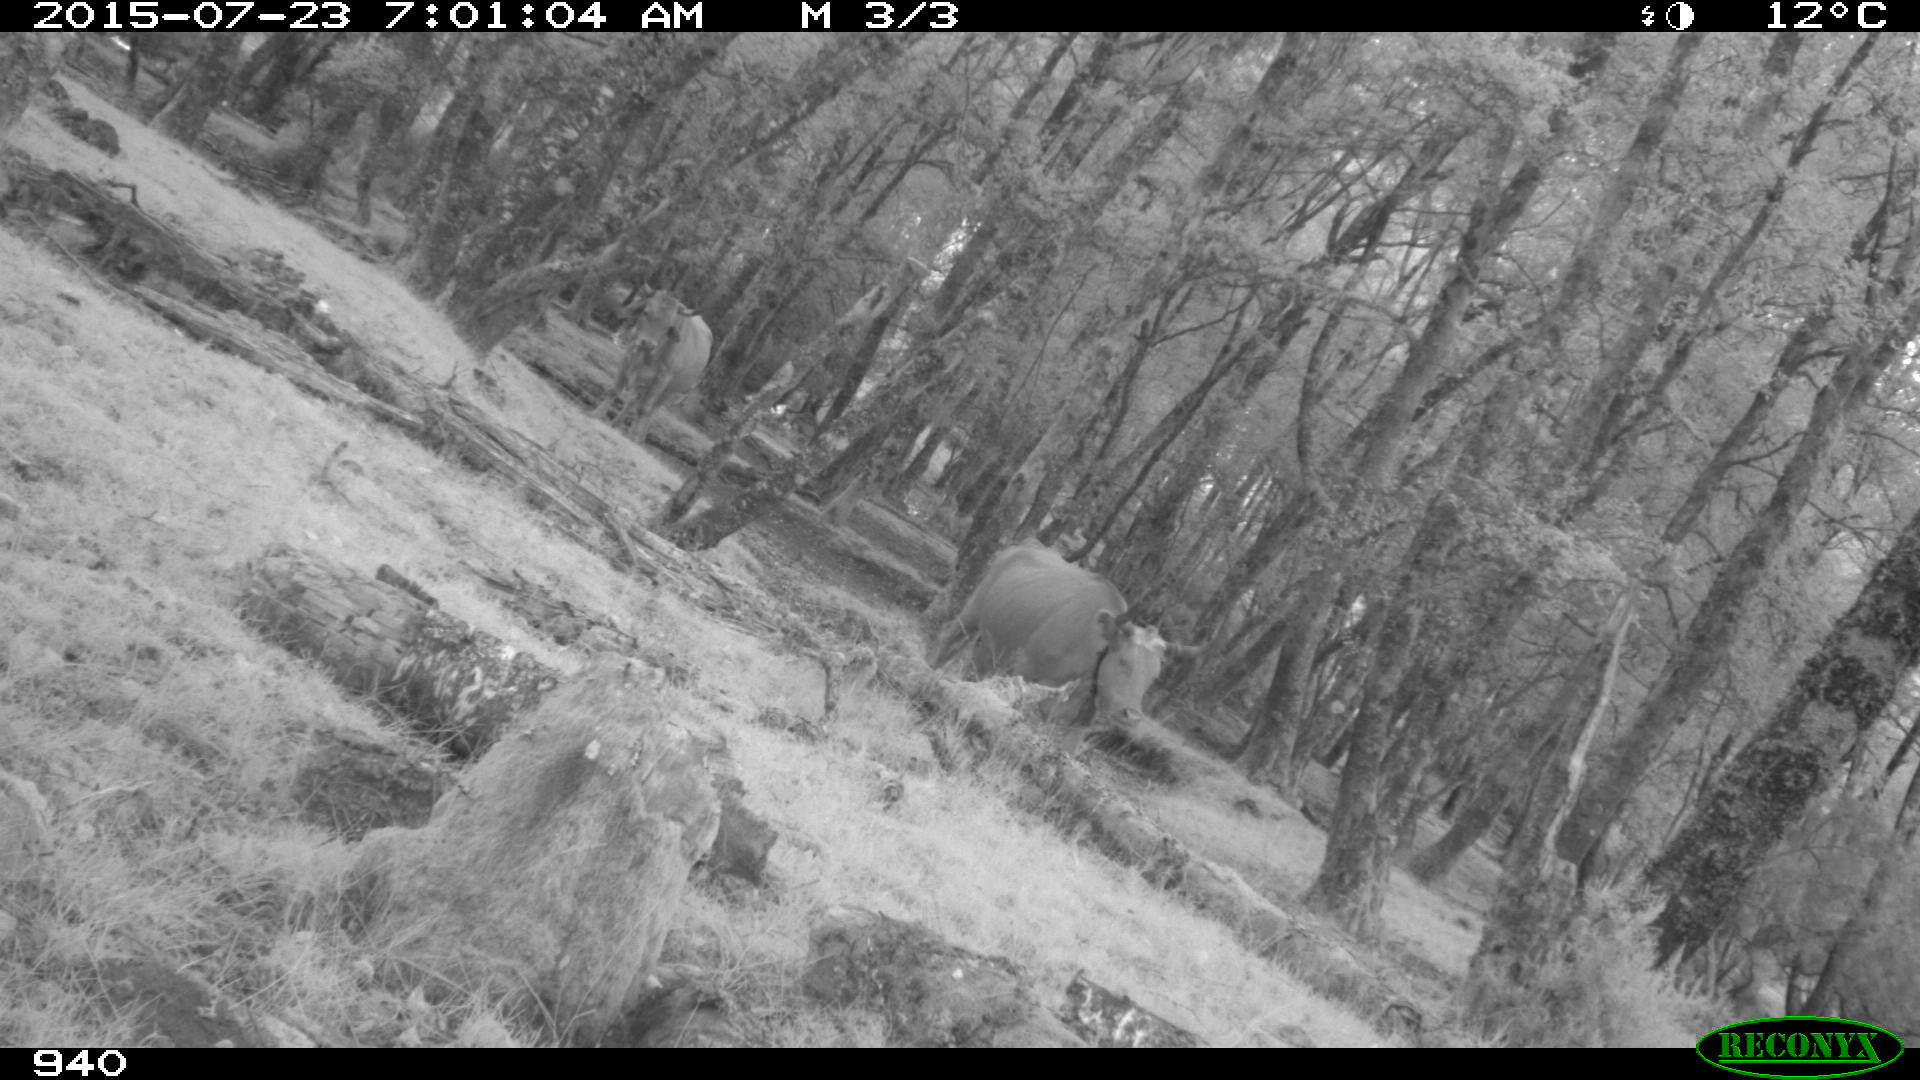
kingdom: Animalia
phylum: Chordata
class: Mammalia
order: Artiodactyla
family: Bovidae
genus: Bos
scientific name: Bos taurus
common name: Domesticated cattle
